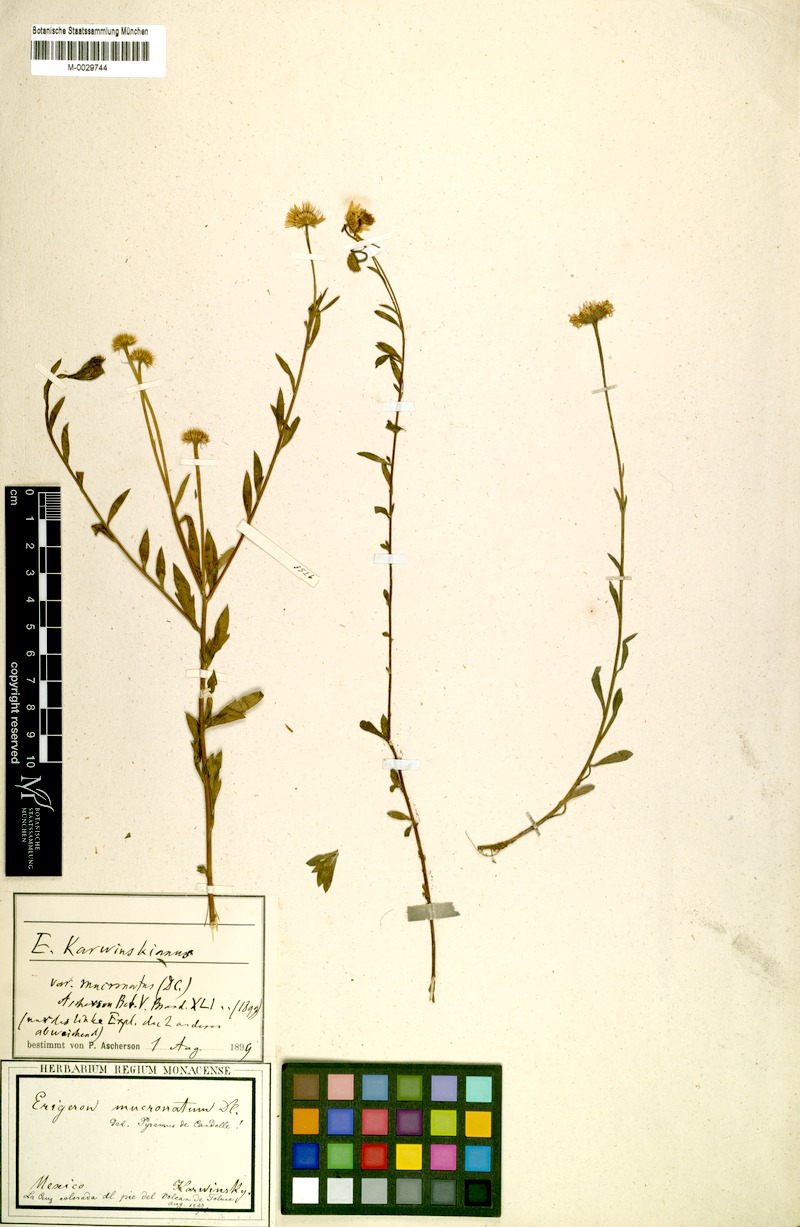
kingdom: Plantae
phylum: Tracheophyta
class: Magnoliopsida
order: Asterales
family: Asteraceae
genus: Erigeron
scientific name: Erigeron karvinskianus
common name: Mexican fleabane
